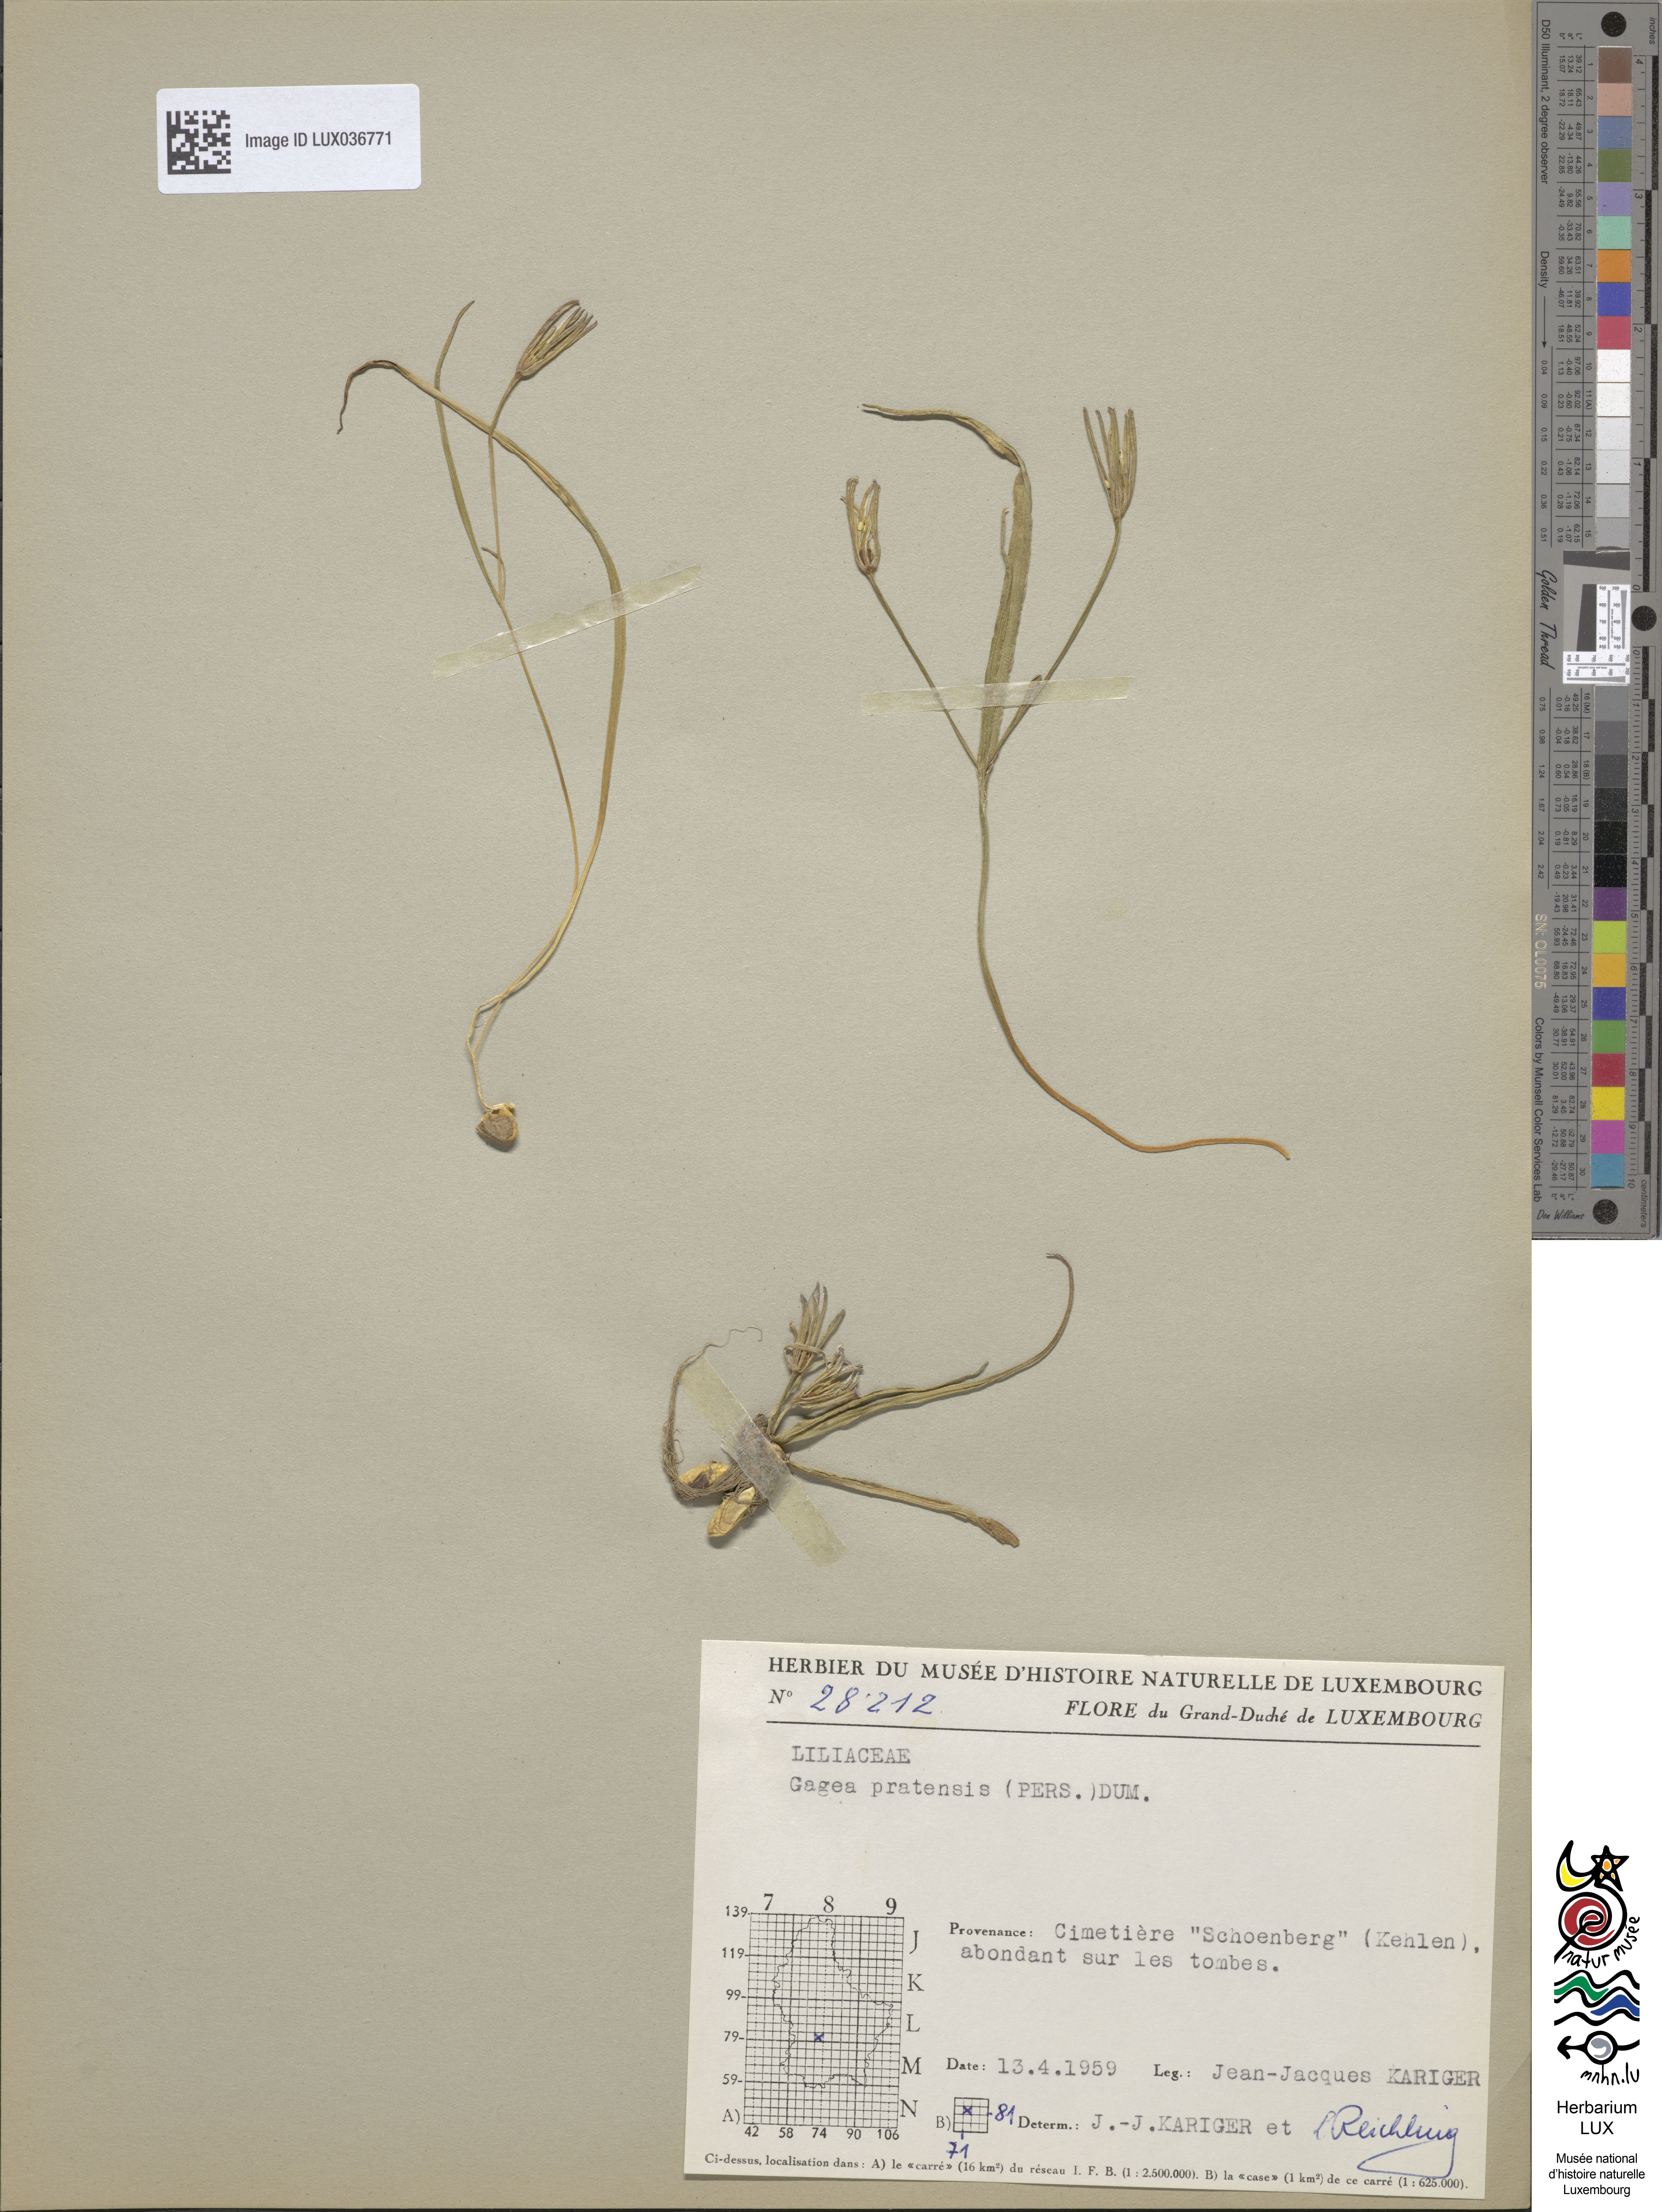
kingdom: Plantae
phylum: Tracheophyta
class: Liliopsida
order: Liliales
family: Liliaceae
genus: Gagea
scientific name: Gagea pratensis
